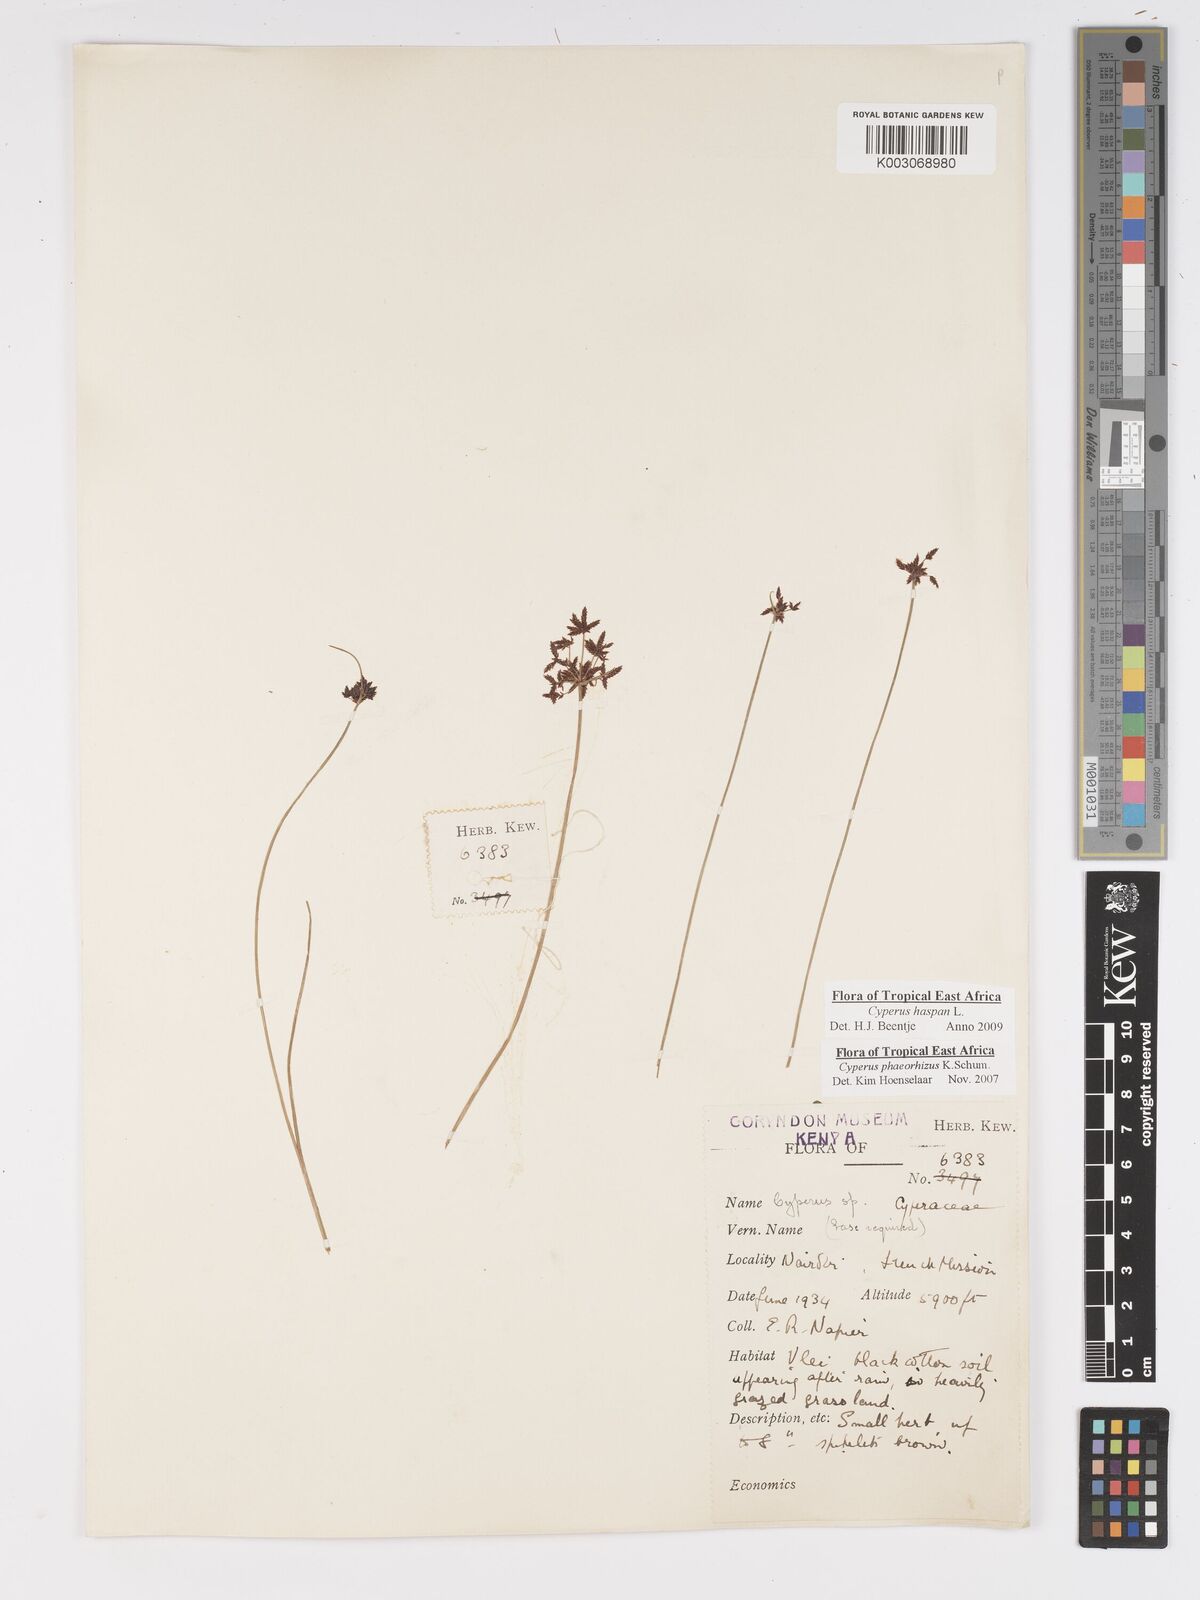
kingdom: Plantae
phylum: Tracheophyta
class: Liliopsida
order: Poales
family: Cyperaceae
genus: Cyperus
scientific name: Cyperus haspan
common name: Haspan flatsedge
